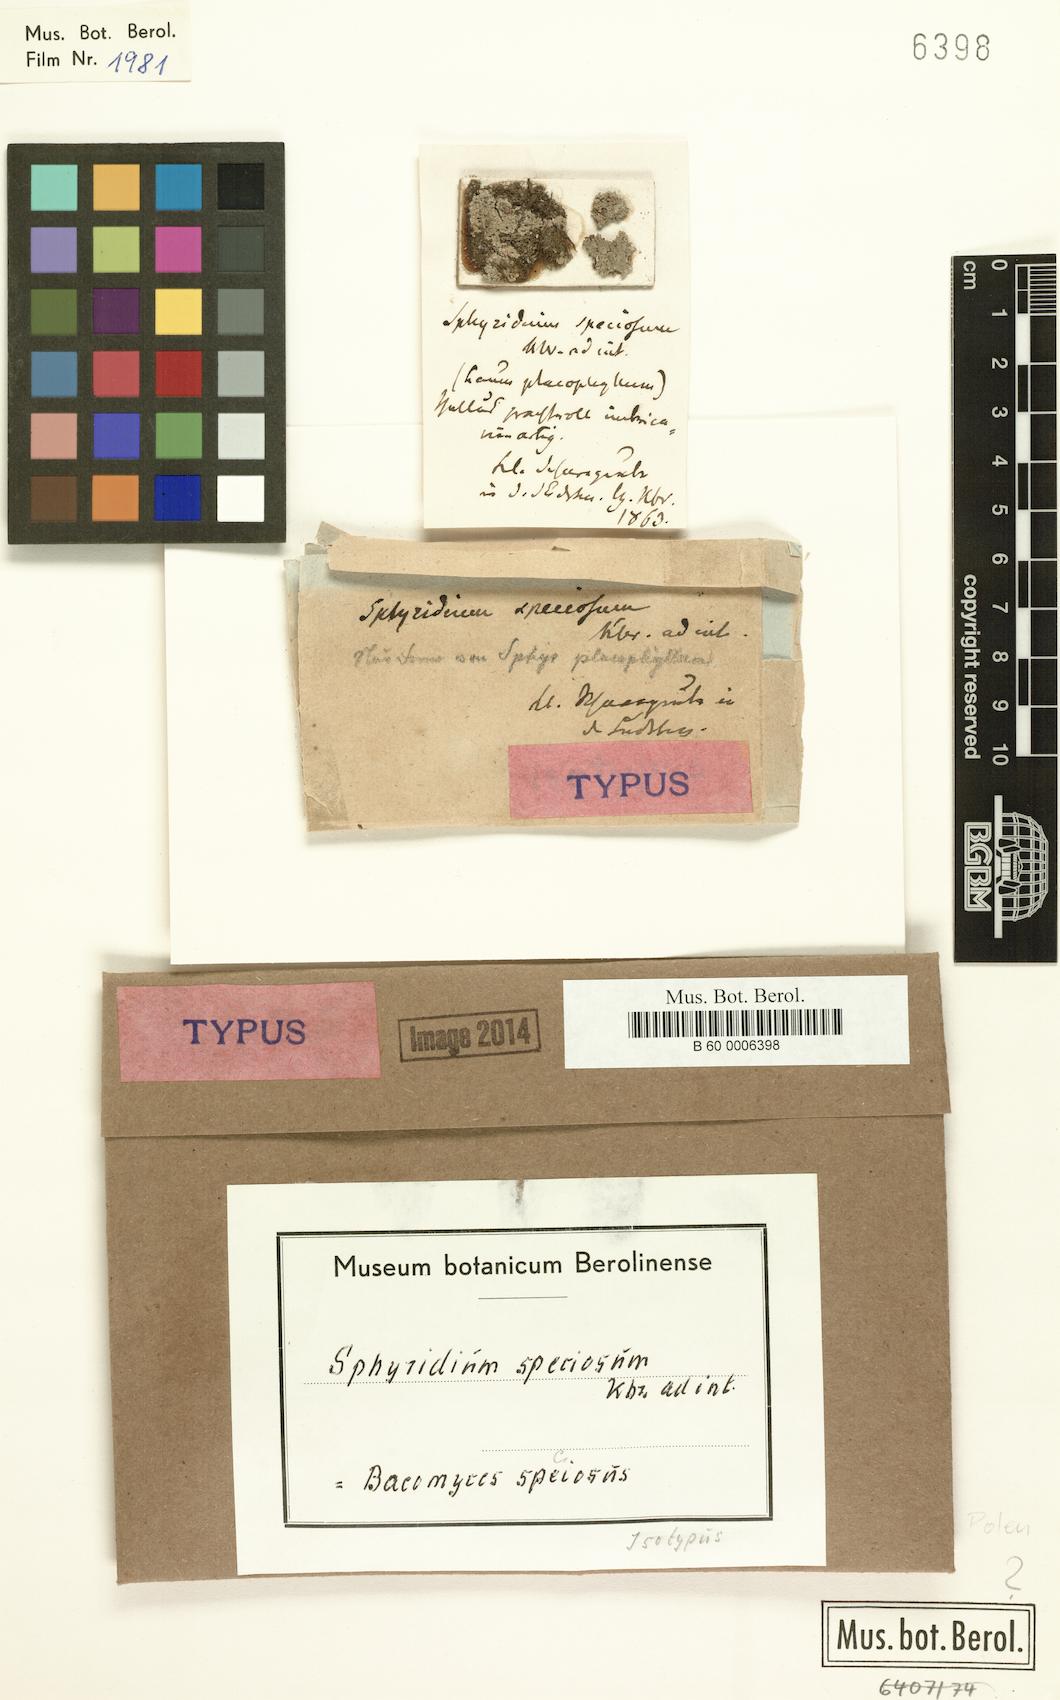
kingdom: Fungi
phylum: Ascomycota
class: Lecanoromycetes
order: Baeomycetales
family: Baeomycetaceae
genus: Baeomyces
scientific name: Baeomyces rufus
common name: Brown beret lichen
